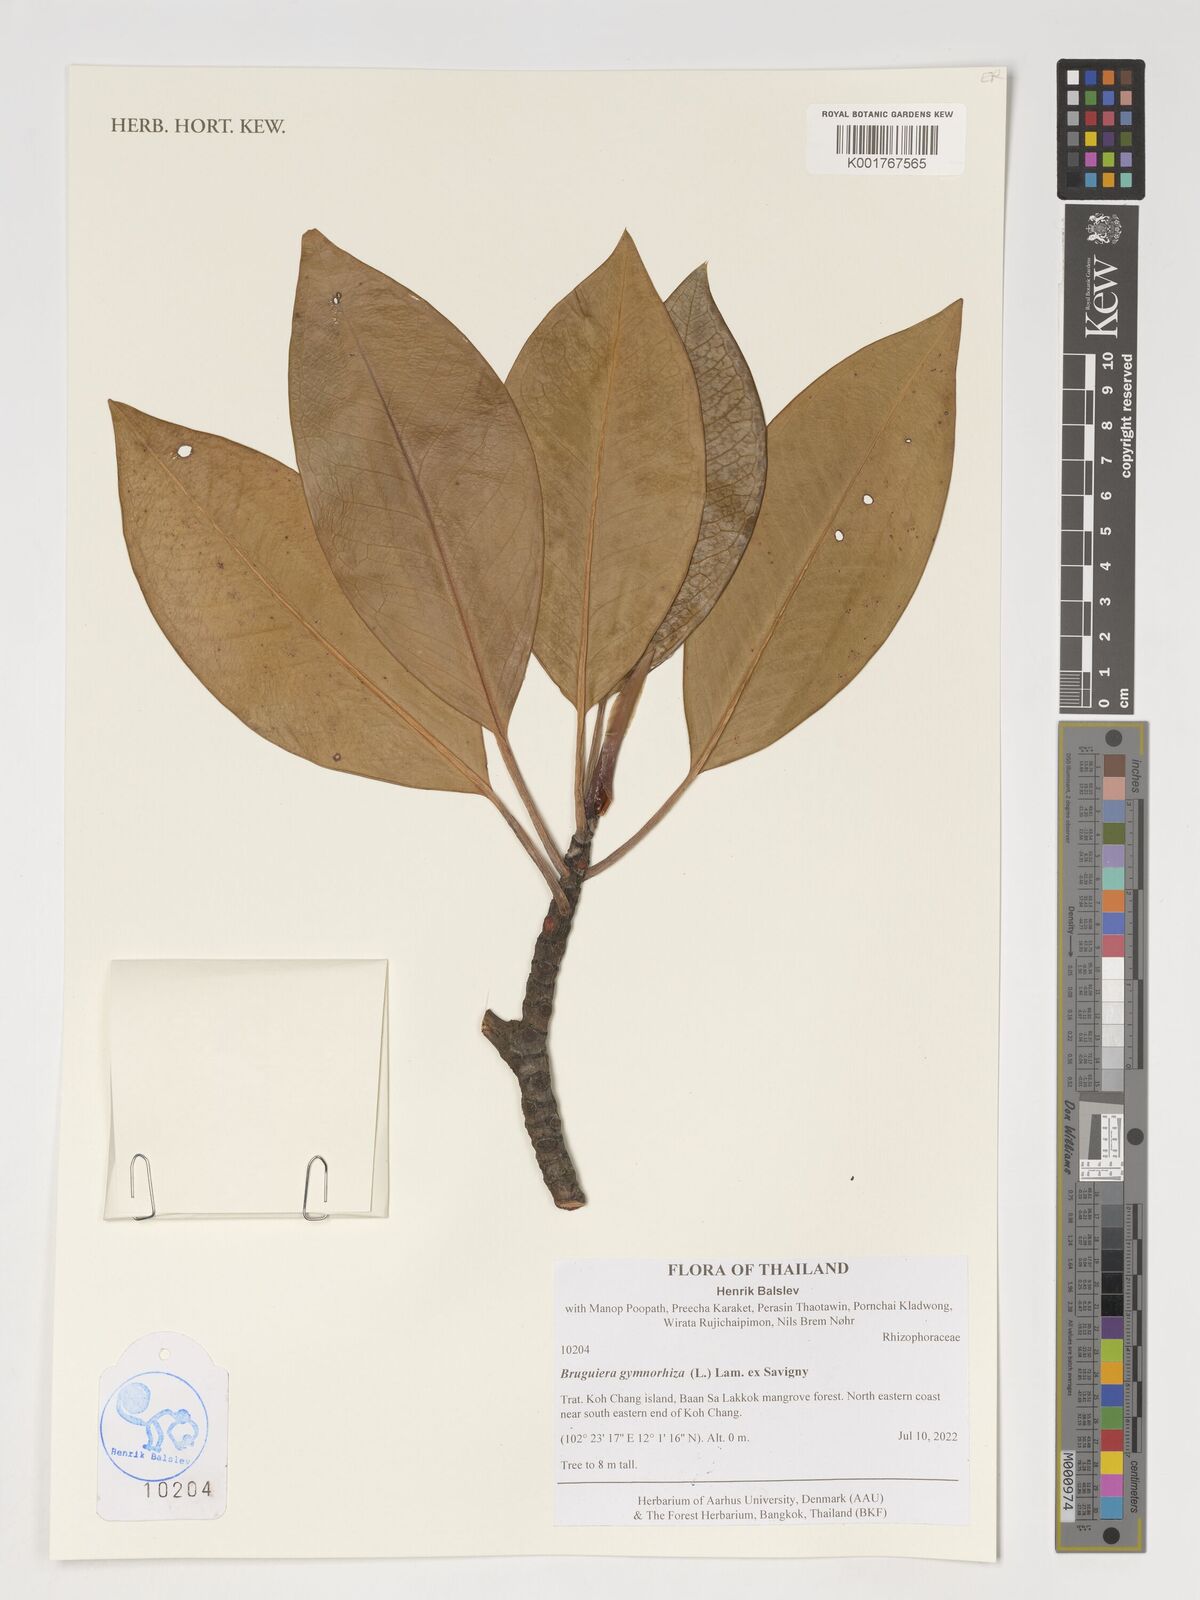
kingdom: Plantae
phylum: Tracheophyta
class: Magnoliopsida
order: Malpighiales
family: Rhizophoraceae
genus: Bruguiera
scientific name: Bruguiera gymnorhiza
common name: Oriental mangrove
